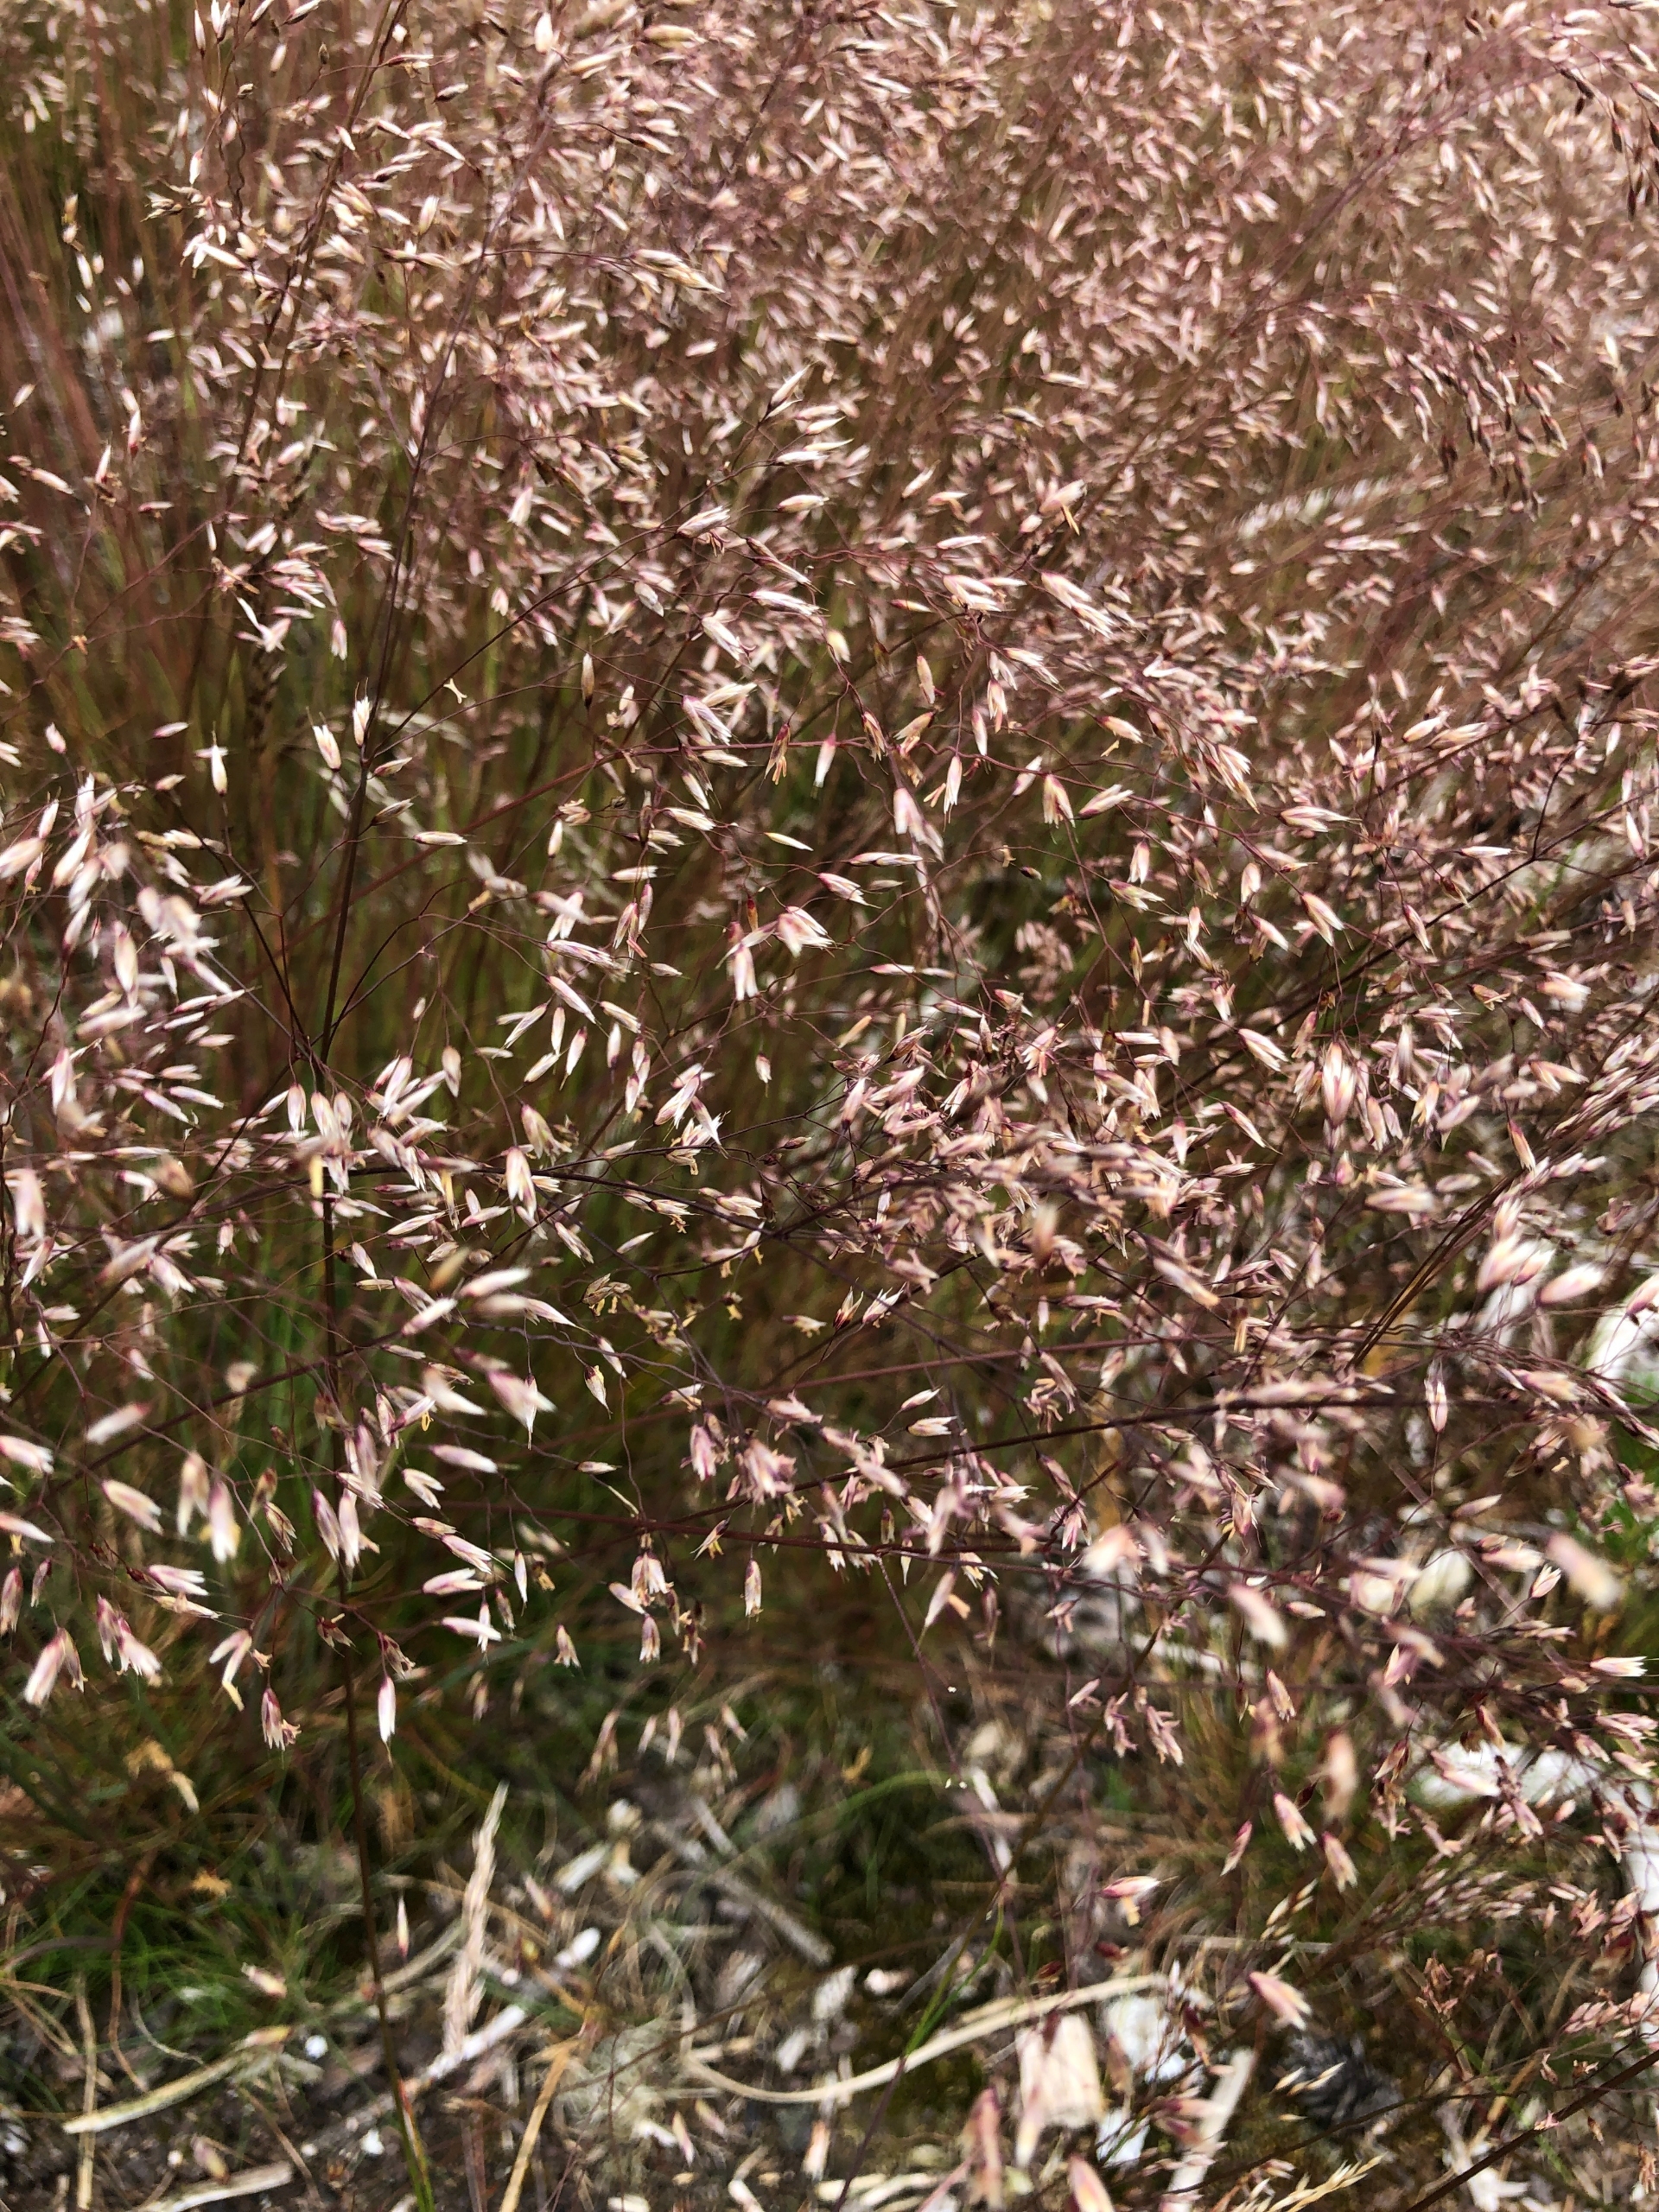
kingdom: Plantae
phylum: Tracheophyta
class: Liliopsida
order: Poales
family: Poaceae
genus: Avenella
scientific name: Avenella flexuosa
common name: Bølget bunke
